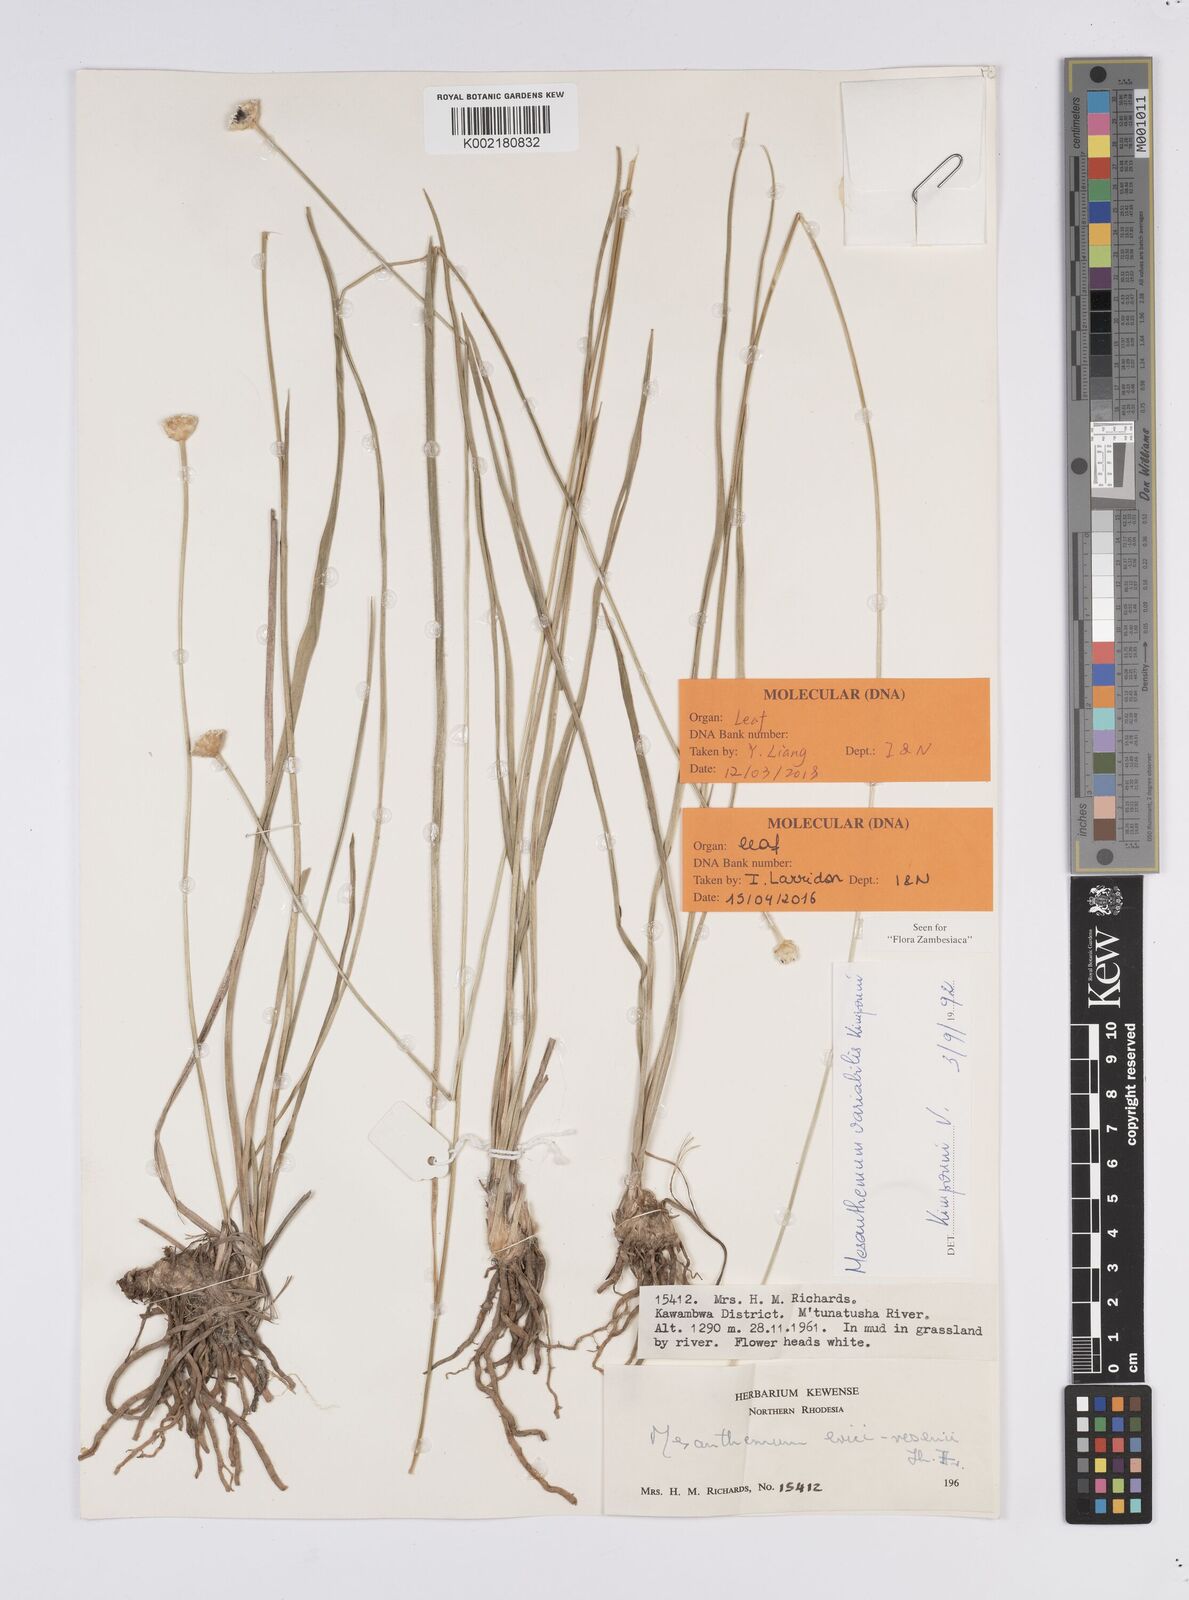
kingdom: Plantae
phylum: Tracheophyta
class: Liliopsida
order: Poales
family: Eriocaulaceae
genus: Mesanthemum
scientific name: Mesanthemum variabile
